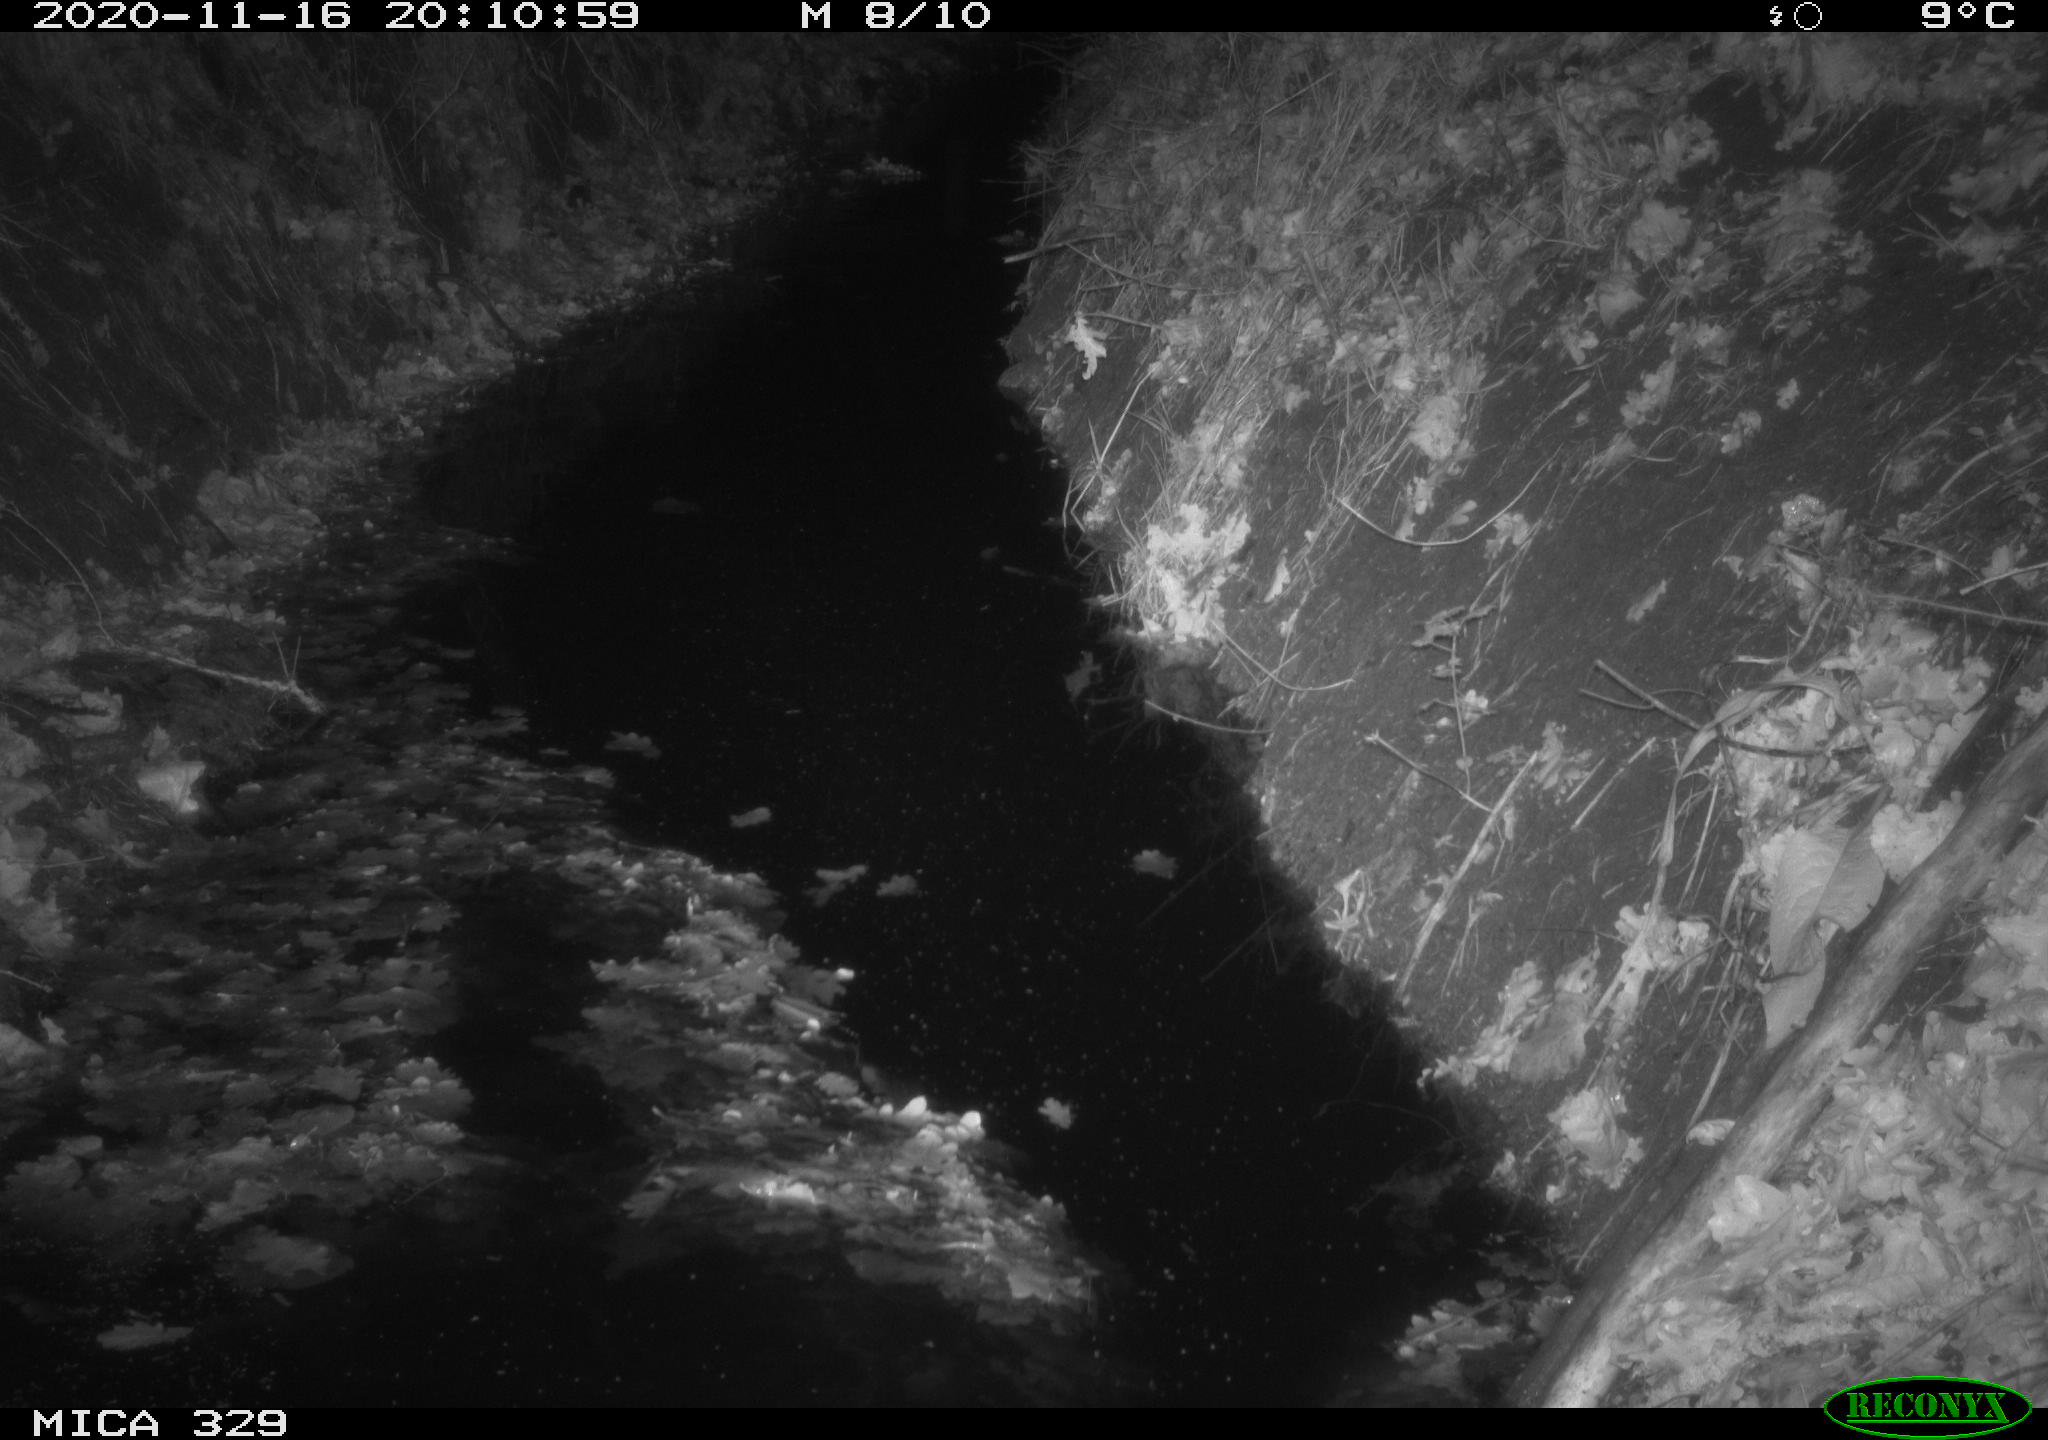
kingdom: Animalia
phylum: Chordata
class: Mammalia
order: Rodentia
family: Muridae
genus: Rattus
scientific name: Rattus norvegicus
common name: Brown rat
